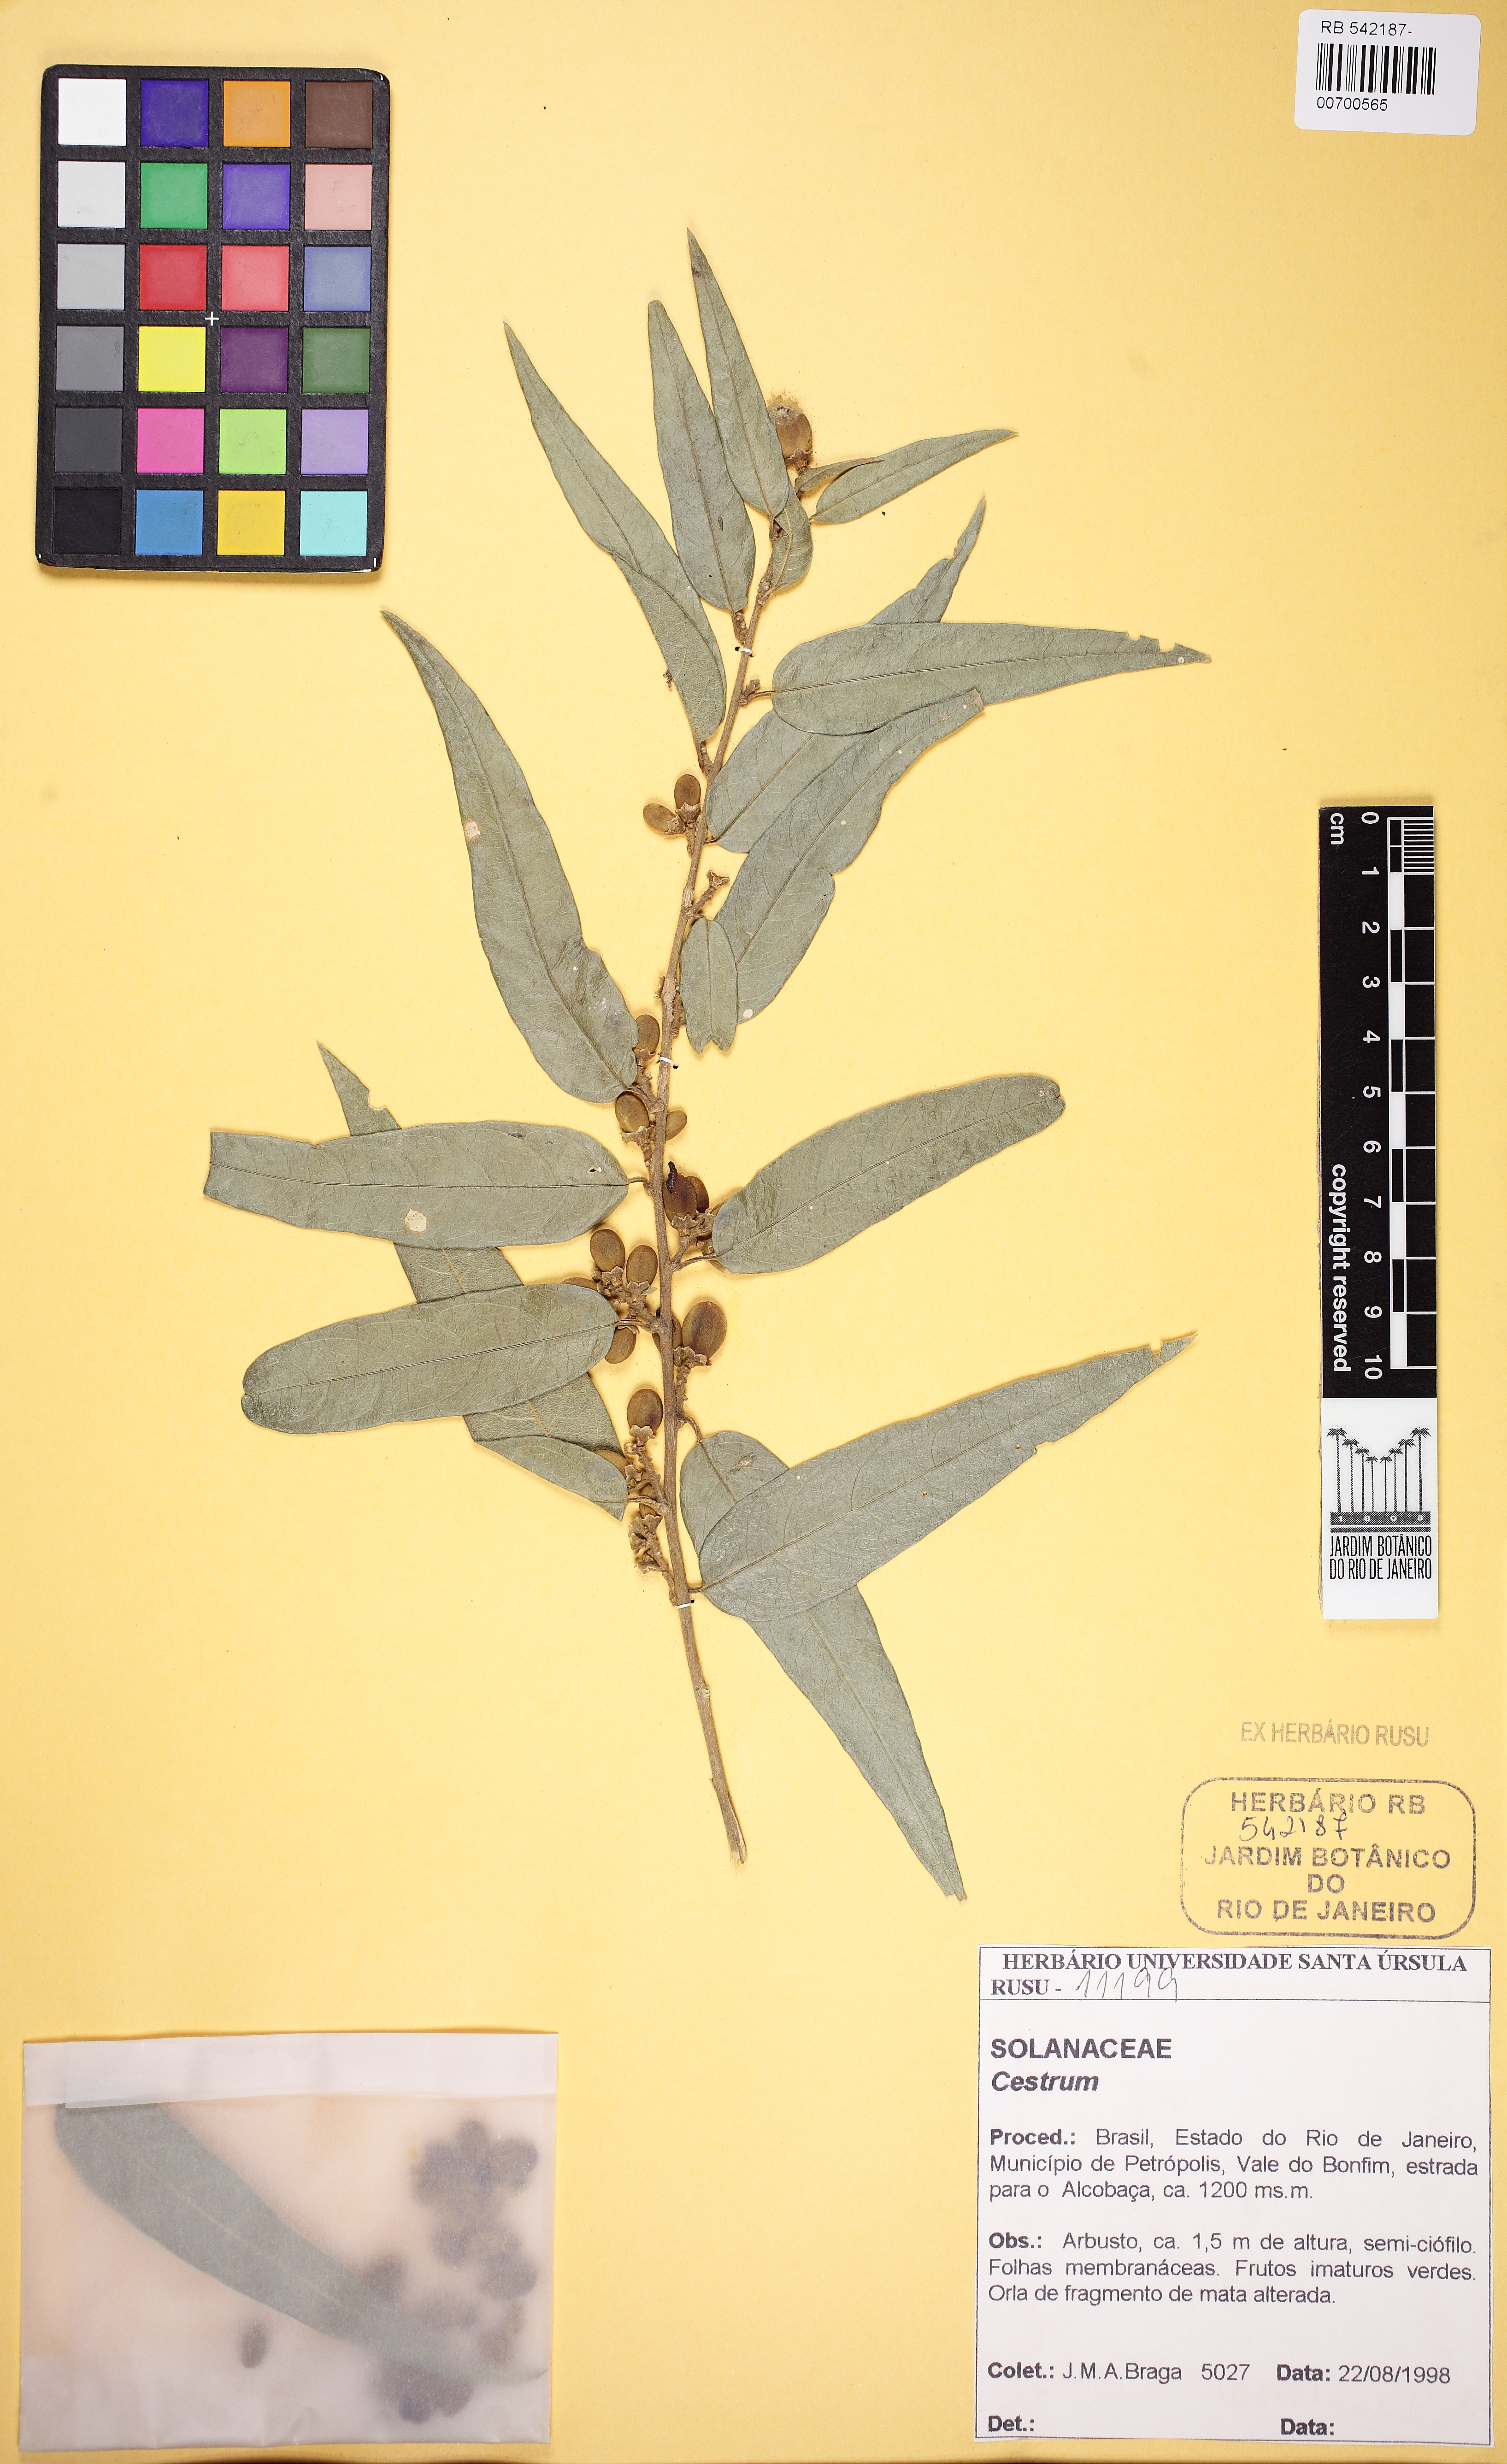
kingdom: Plantae
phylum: Tracheophyta
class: Magnoliopsida
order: Solanales
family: Solanaceae
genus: Cestrum
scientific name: Cestrum
